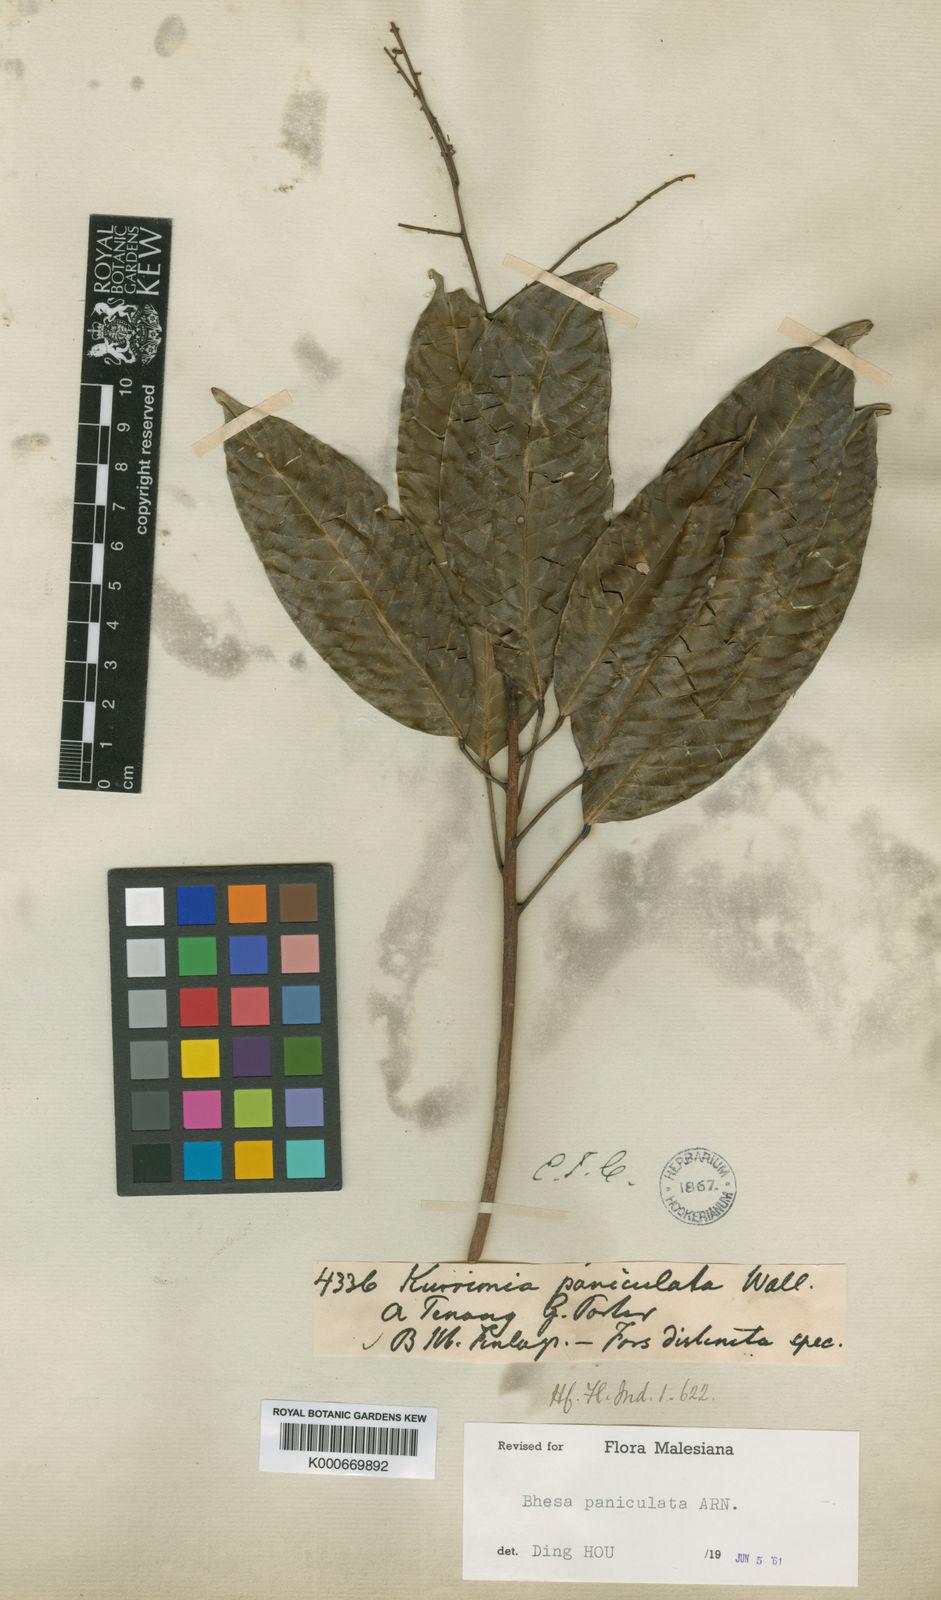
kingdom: Plantae
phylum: Tracheophyta
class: Magnoliopsida
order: Malpighiales
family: Centroplacaceae
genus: Bhesa
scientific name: Bhesa paniculata
